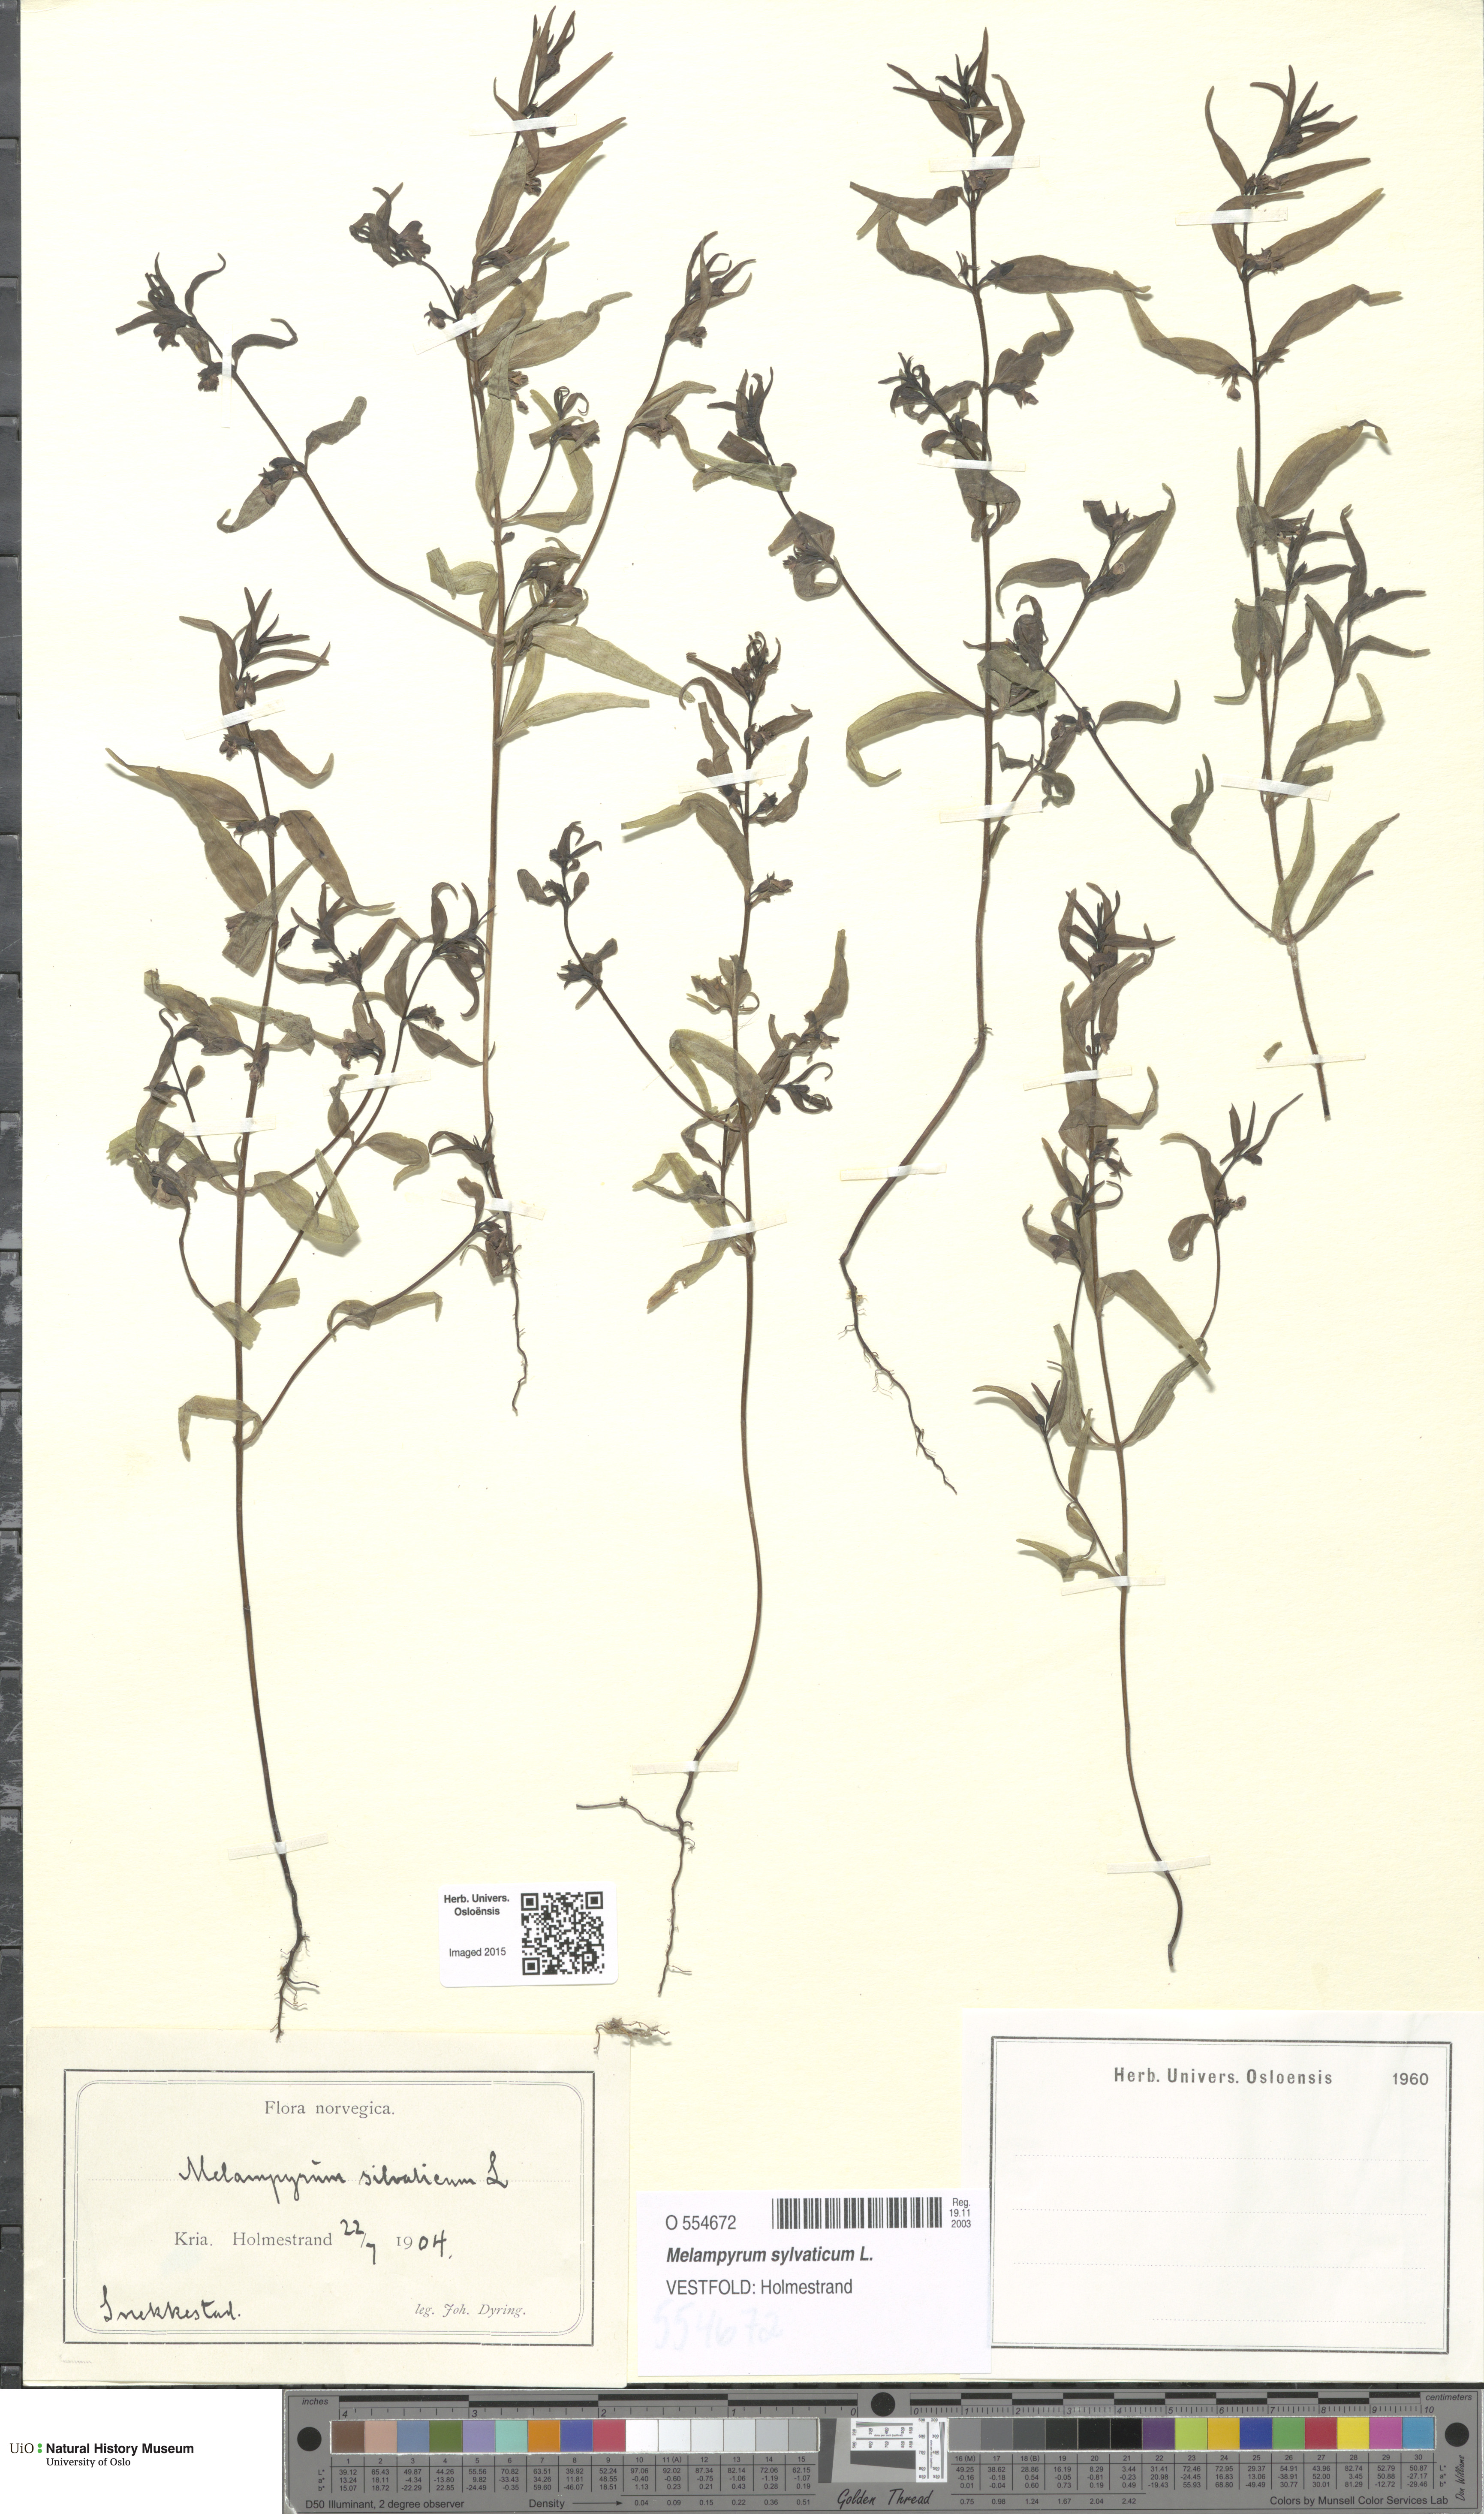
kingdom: Plantae
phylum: Tracheophyta
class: Magnoliopsida
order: Lamiales
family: Orobanchaceae
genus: Melampyrum
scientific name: Melampyrum sylvaticum
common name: Small cow-wheat
